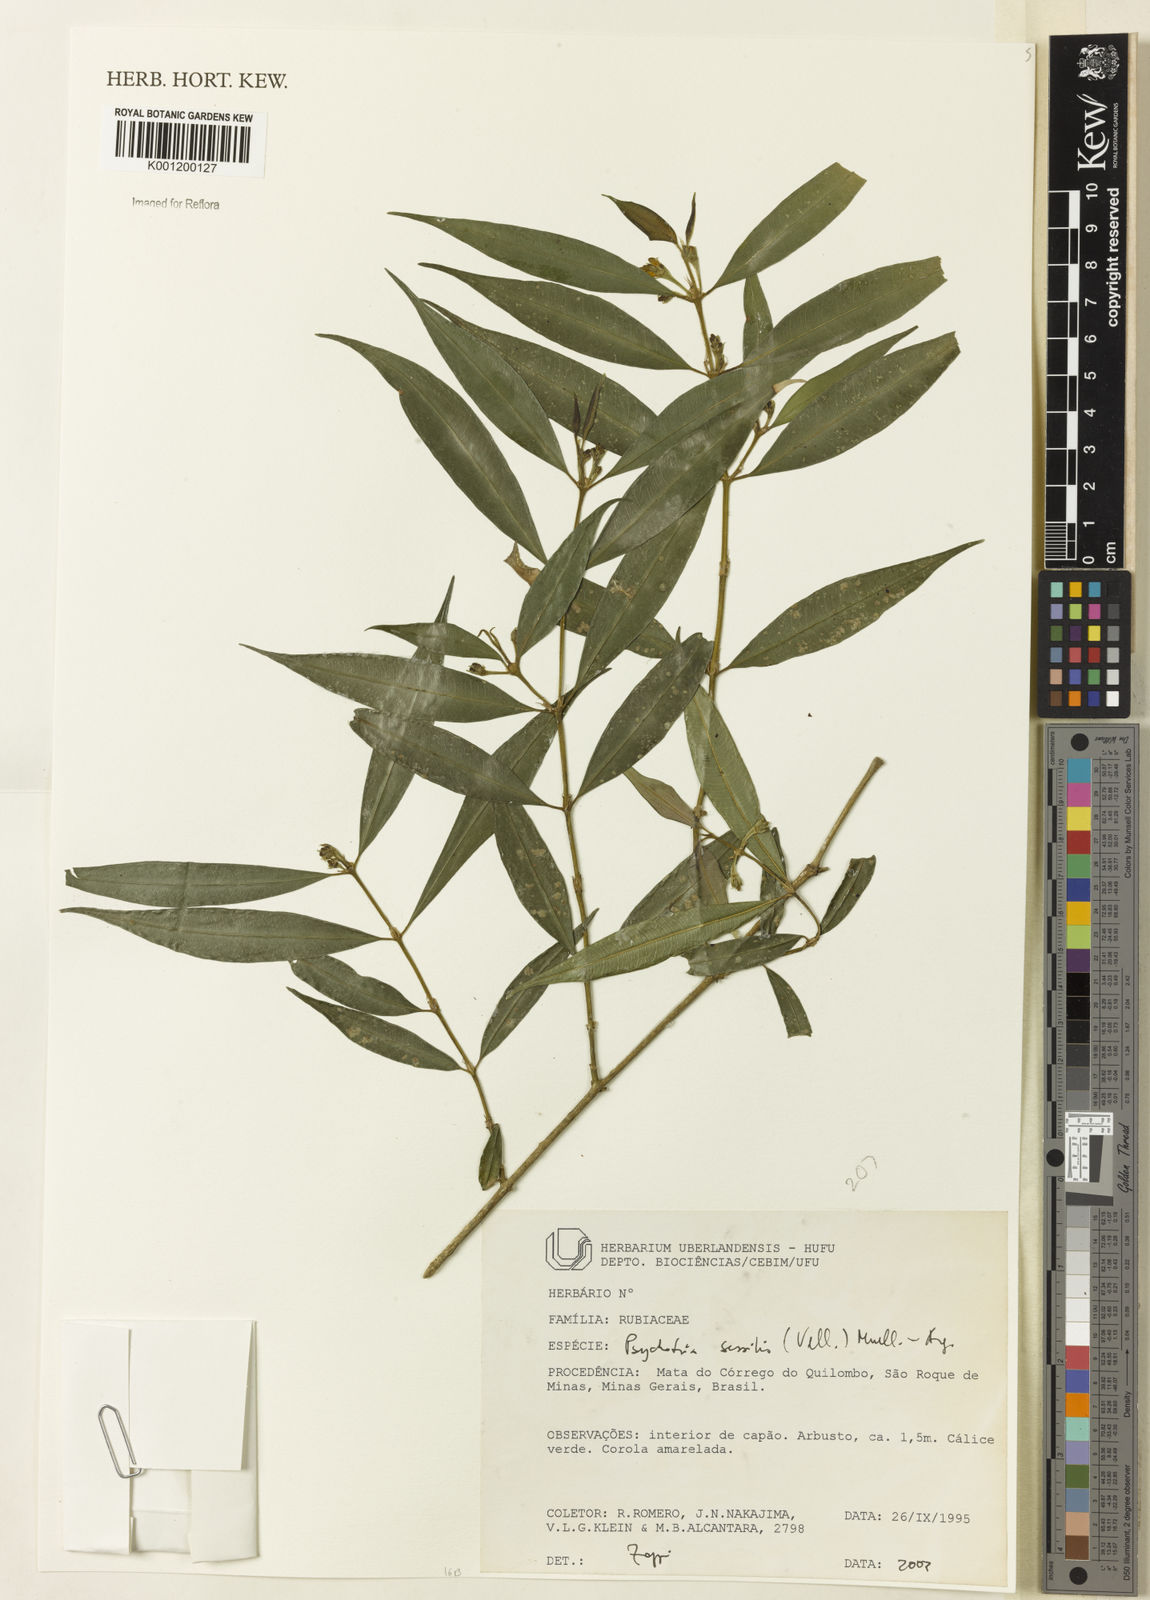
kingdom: Plantae
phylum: Tracheophyta
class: Magnoliopsida
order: Gentianales
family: Rubiaceae
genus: Rudgea
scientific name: Rudgea sessilis
